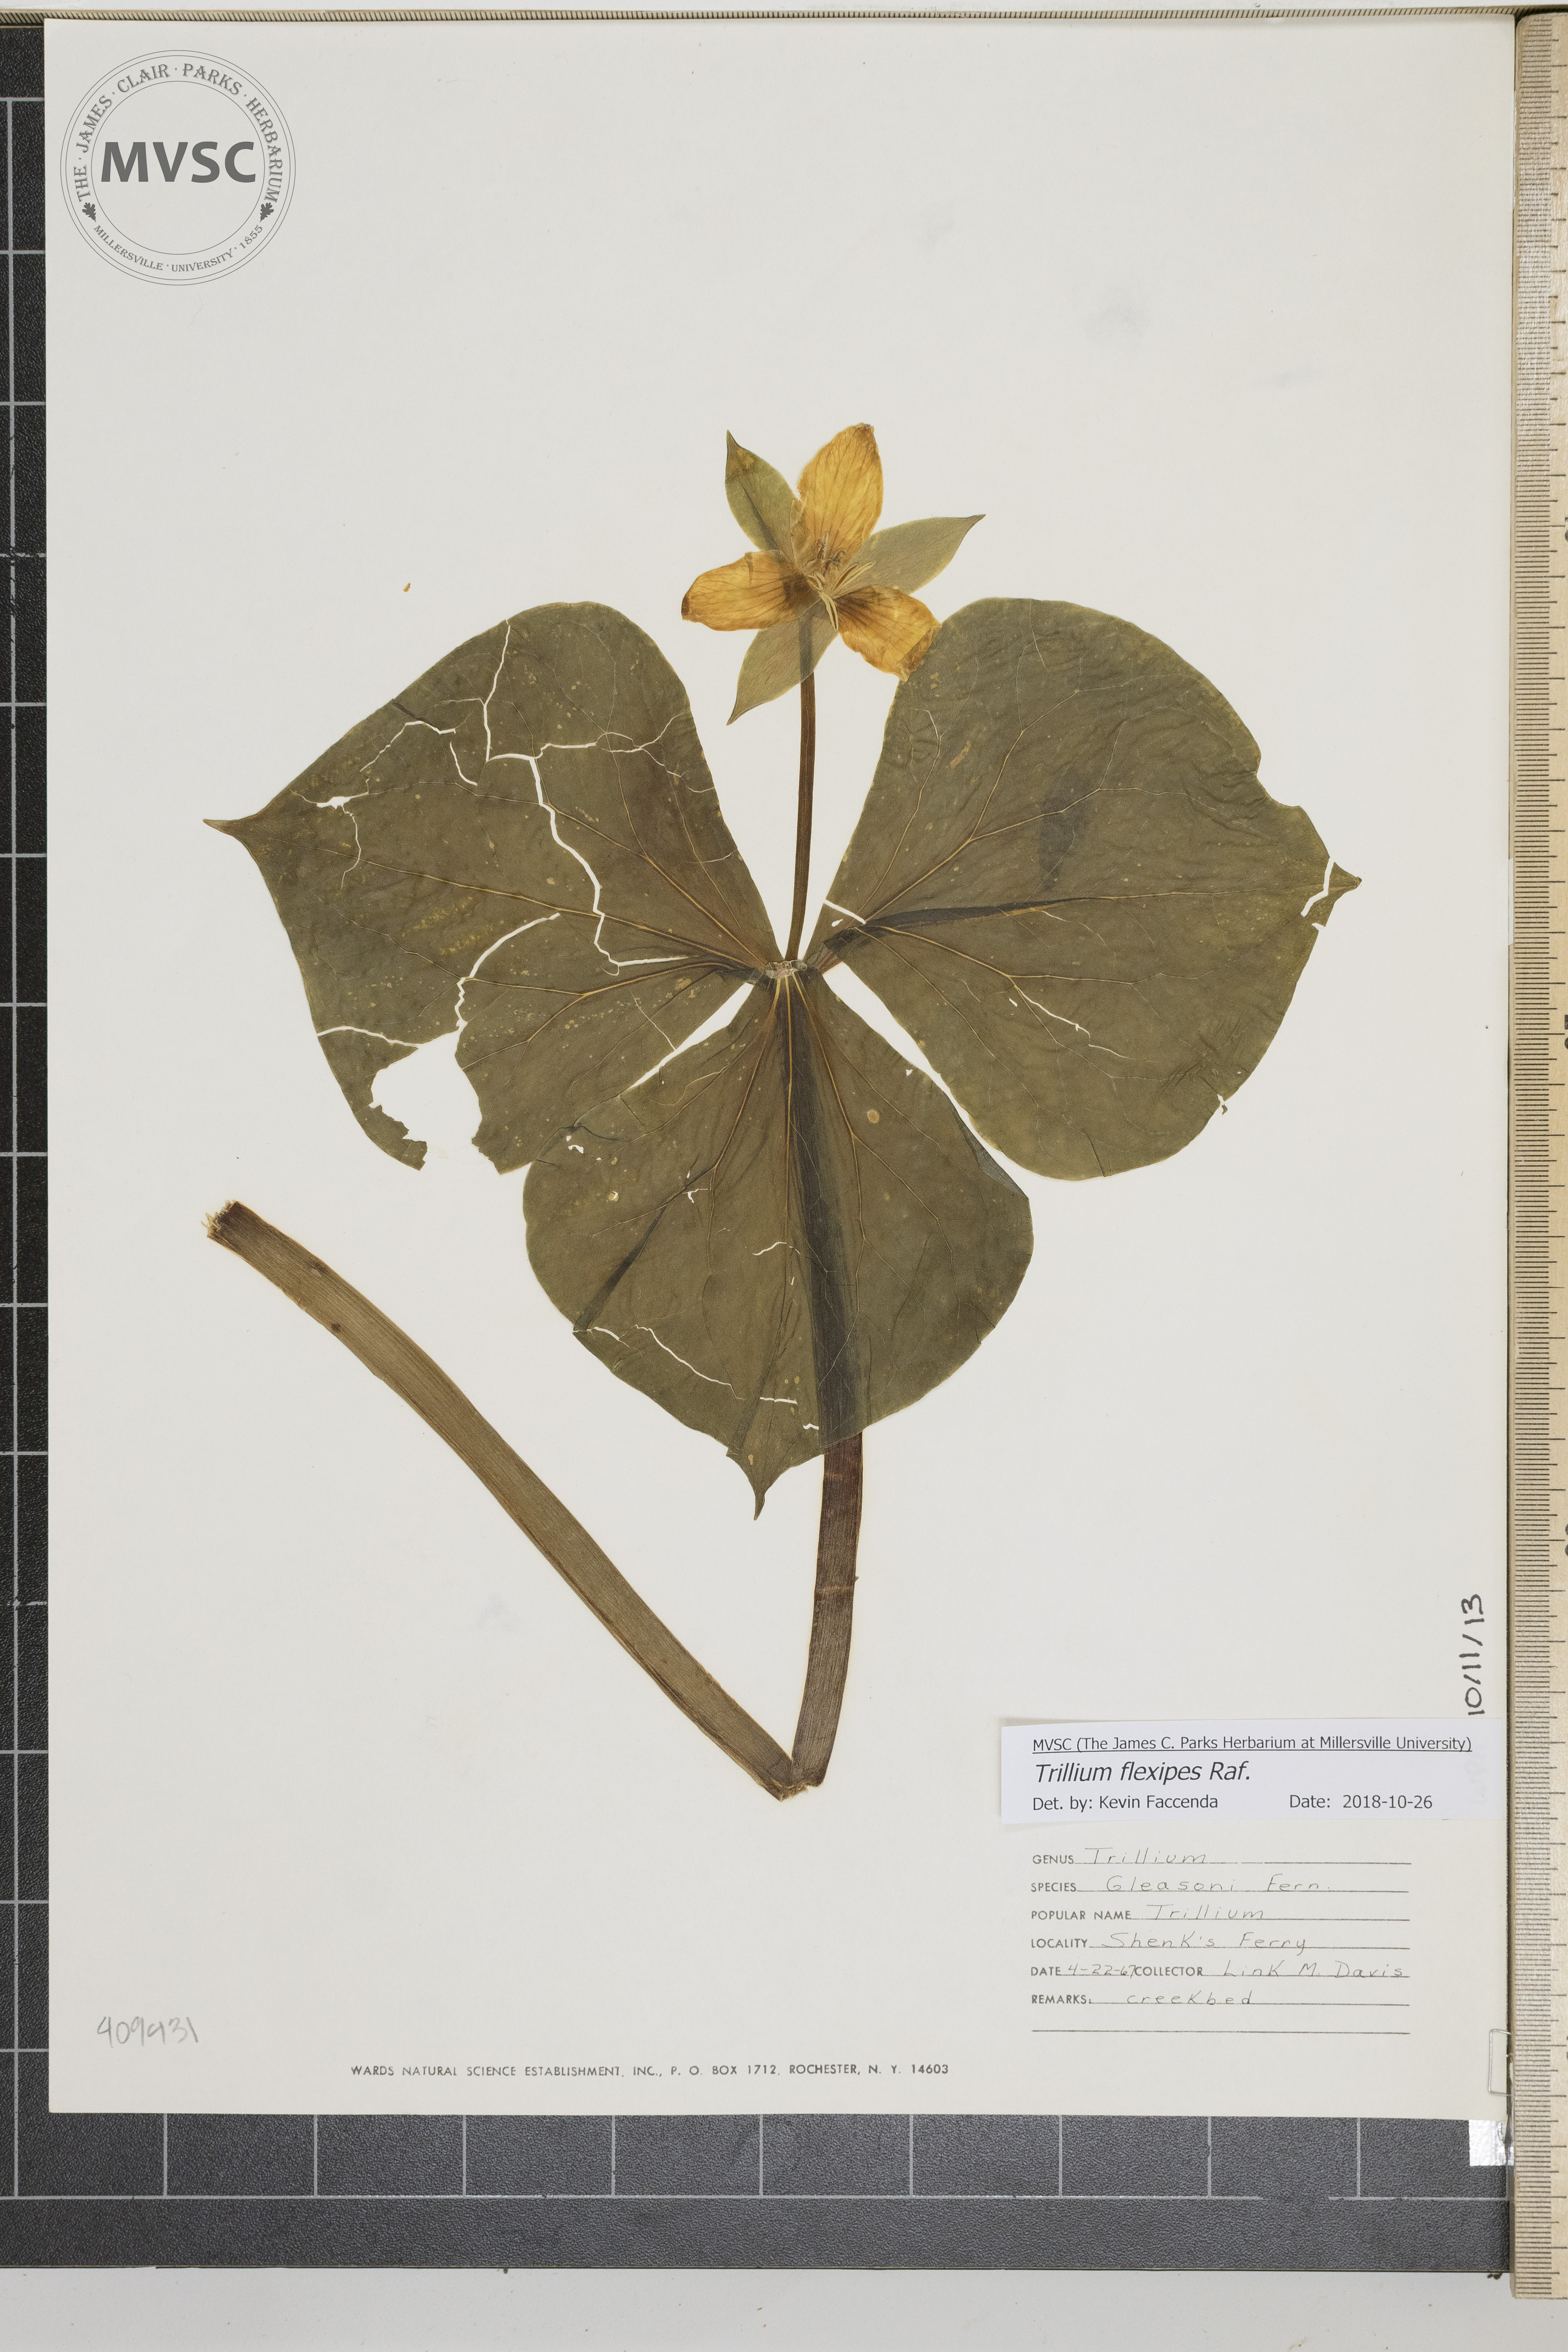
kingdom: Plantae
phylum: Tracheophyta
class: Liliopsida
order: Liliales
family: Melanthiaceae
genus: Trillium
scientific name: Trillium flexipes
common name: Drooping trillium
